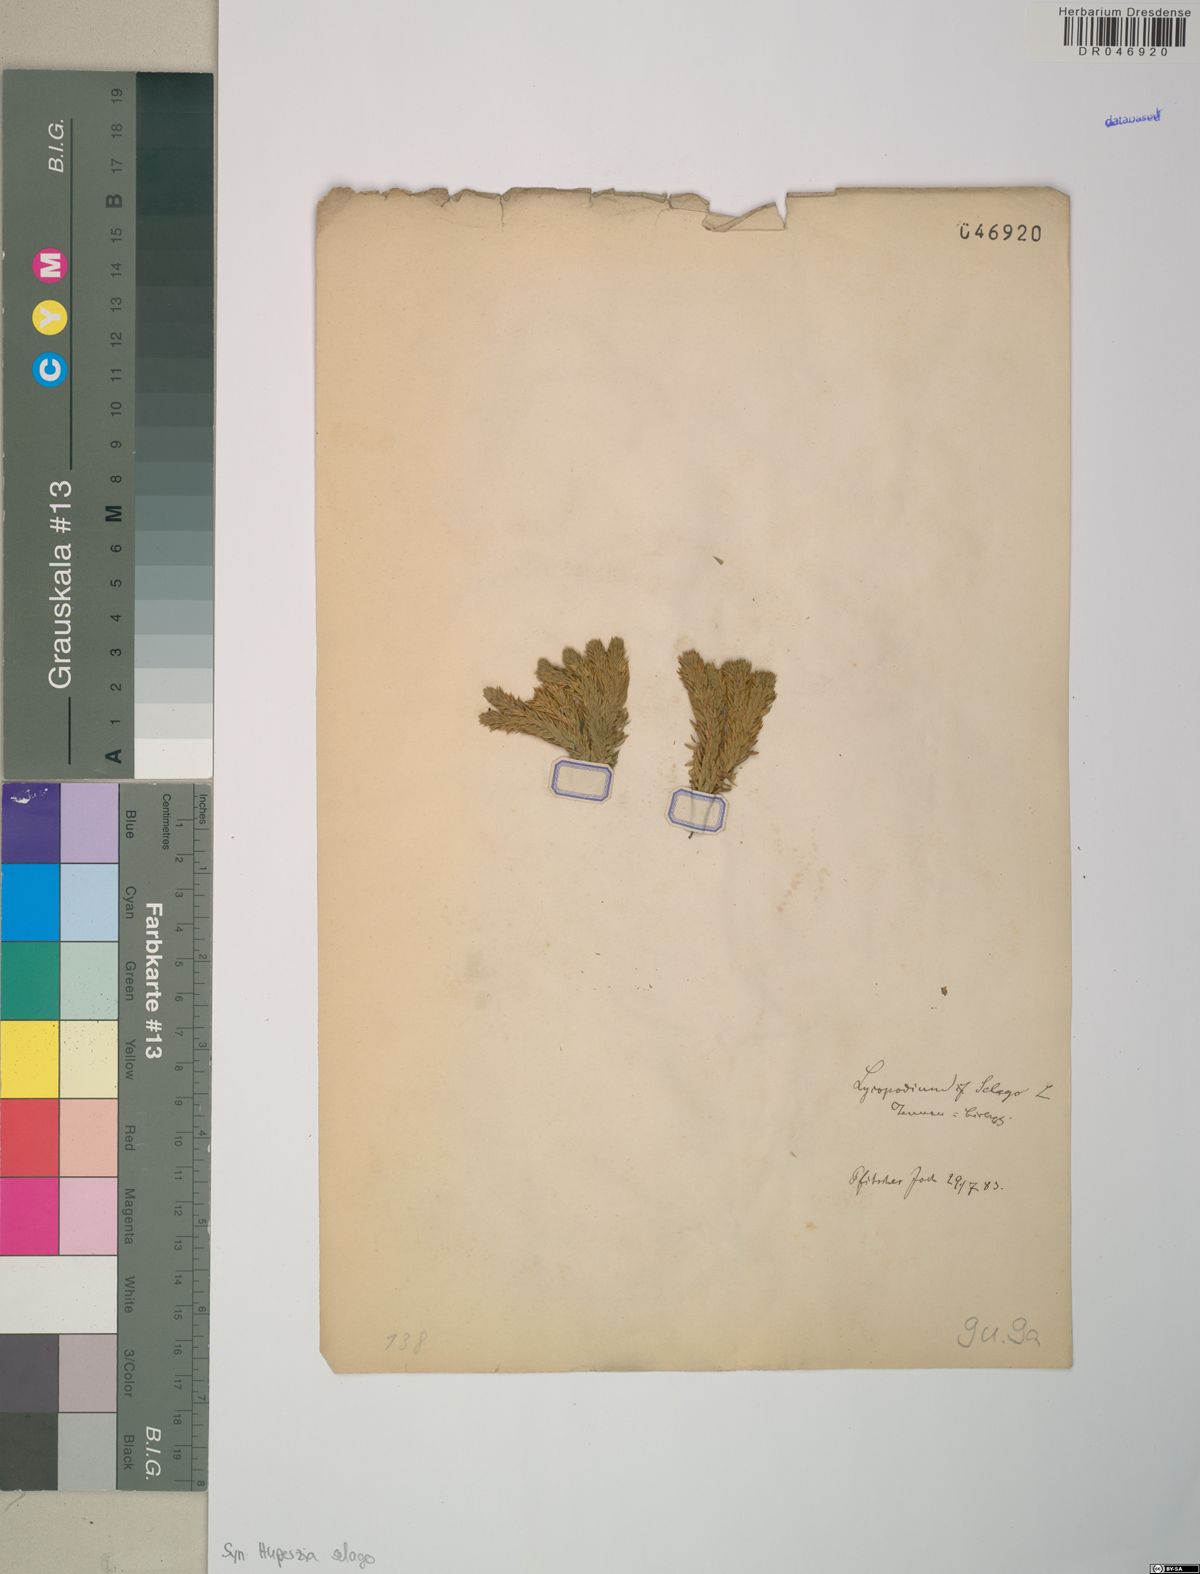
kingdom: Plantae
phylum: Tracheophyta
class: Lycopodiopsida
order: Lycopodiales
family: Lycopodiaceae
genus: Huperzia
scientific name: Huperzia selago
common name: Northern firmoss
